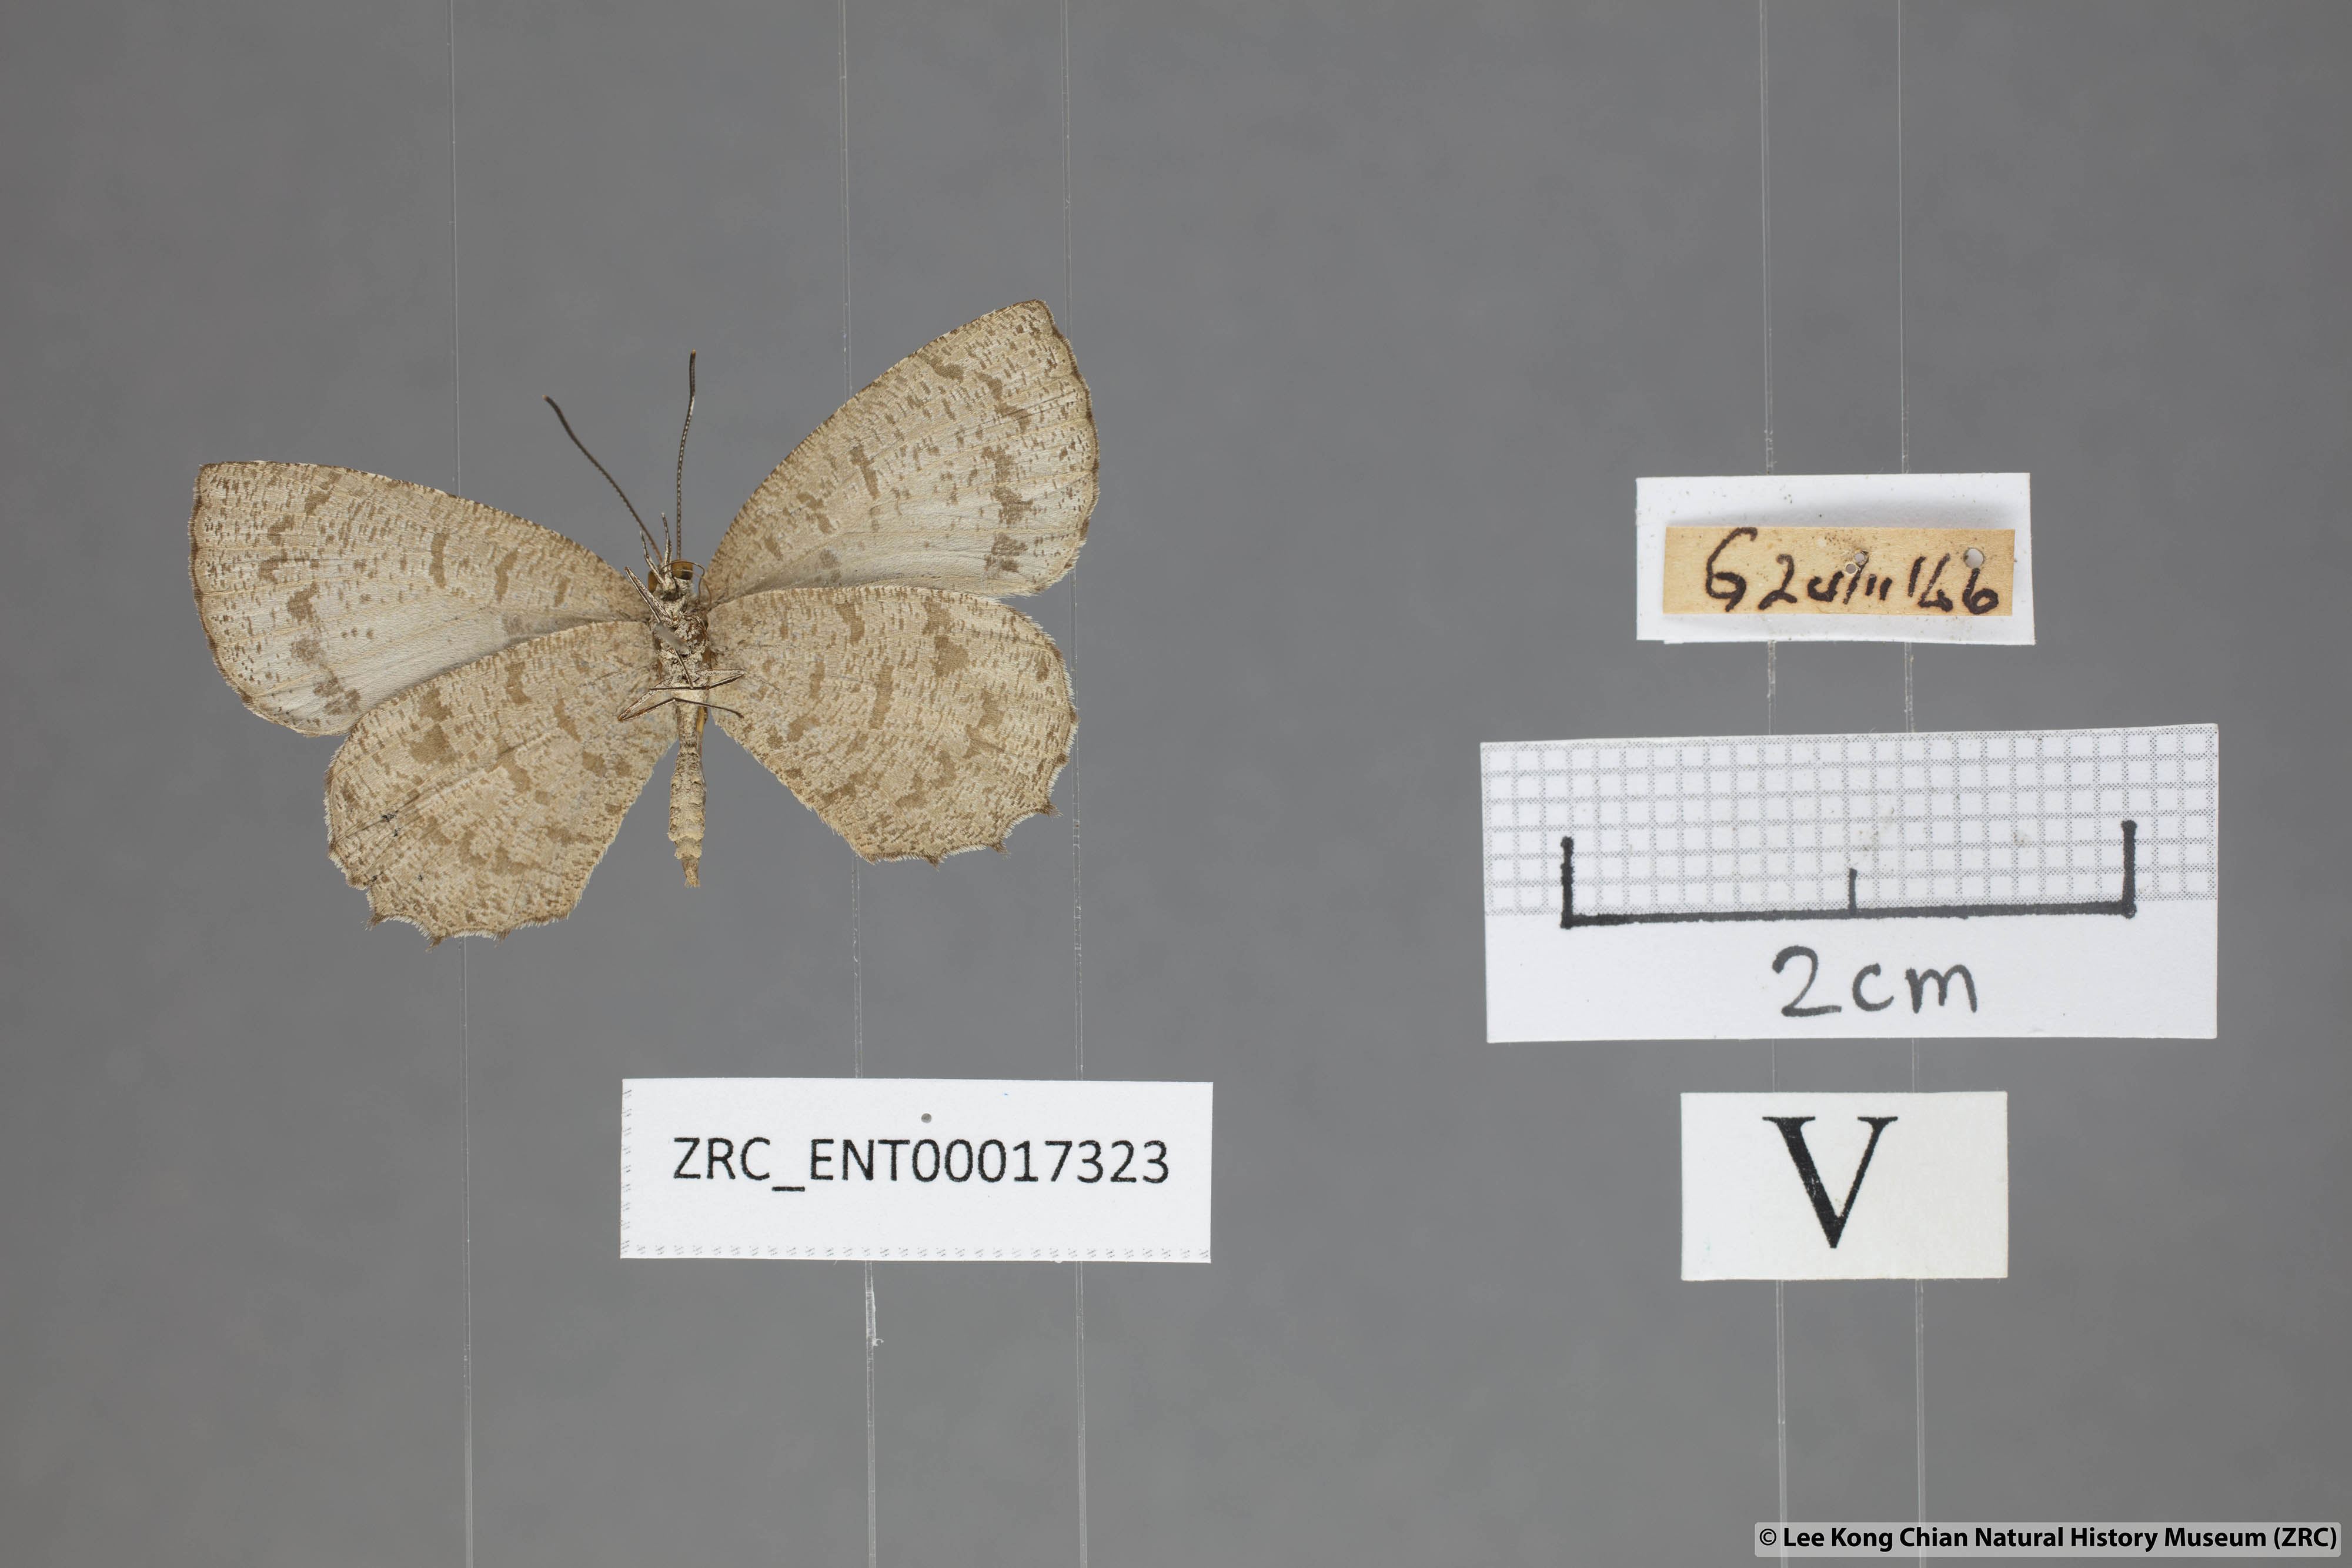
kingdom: Animalia
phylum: Arthropoda
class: Insecta
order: Lepidoptera
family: Lycaenidae
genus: Allotinus
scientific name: Allotinus subviolaceus
